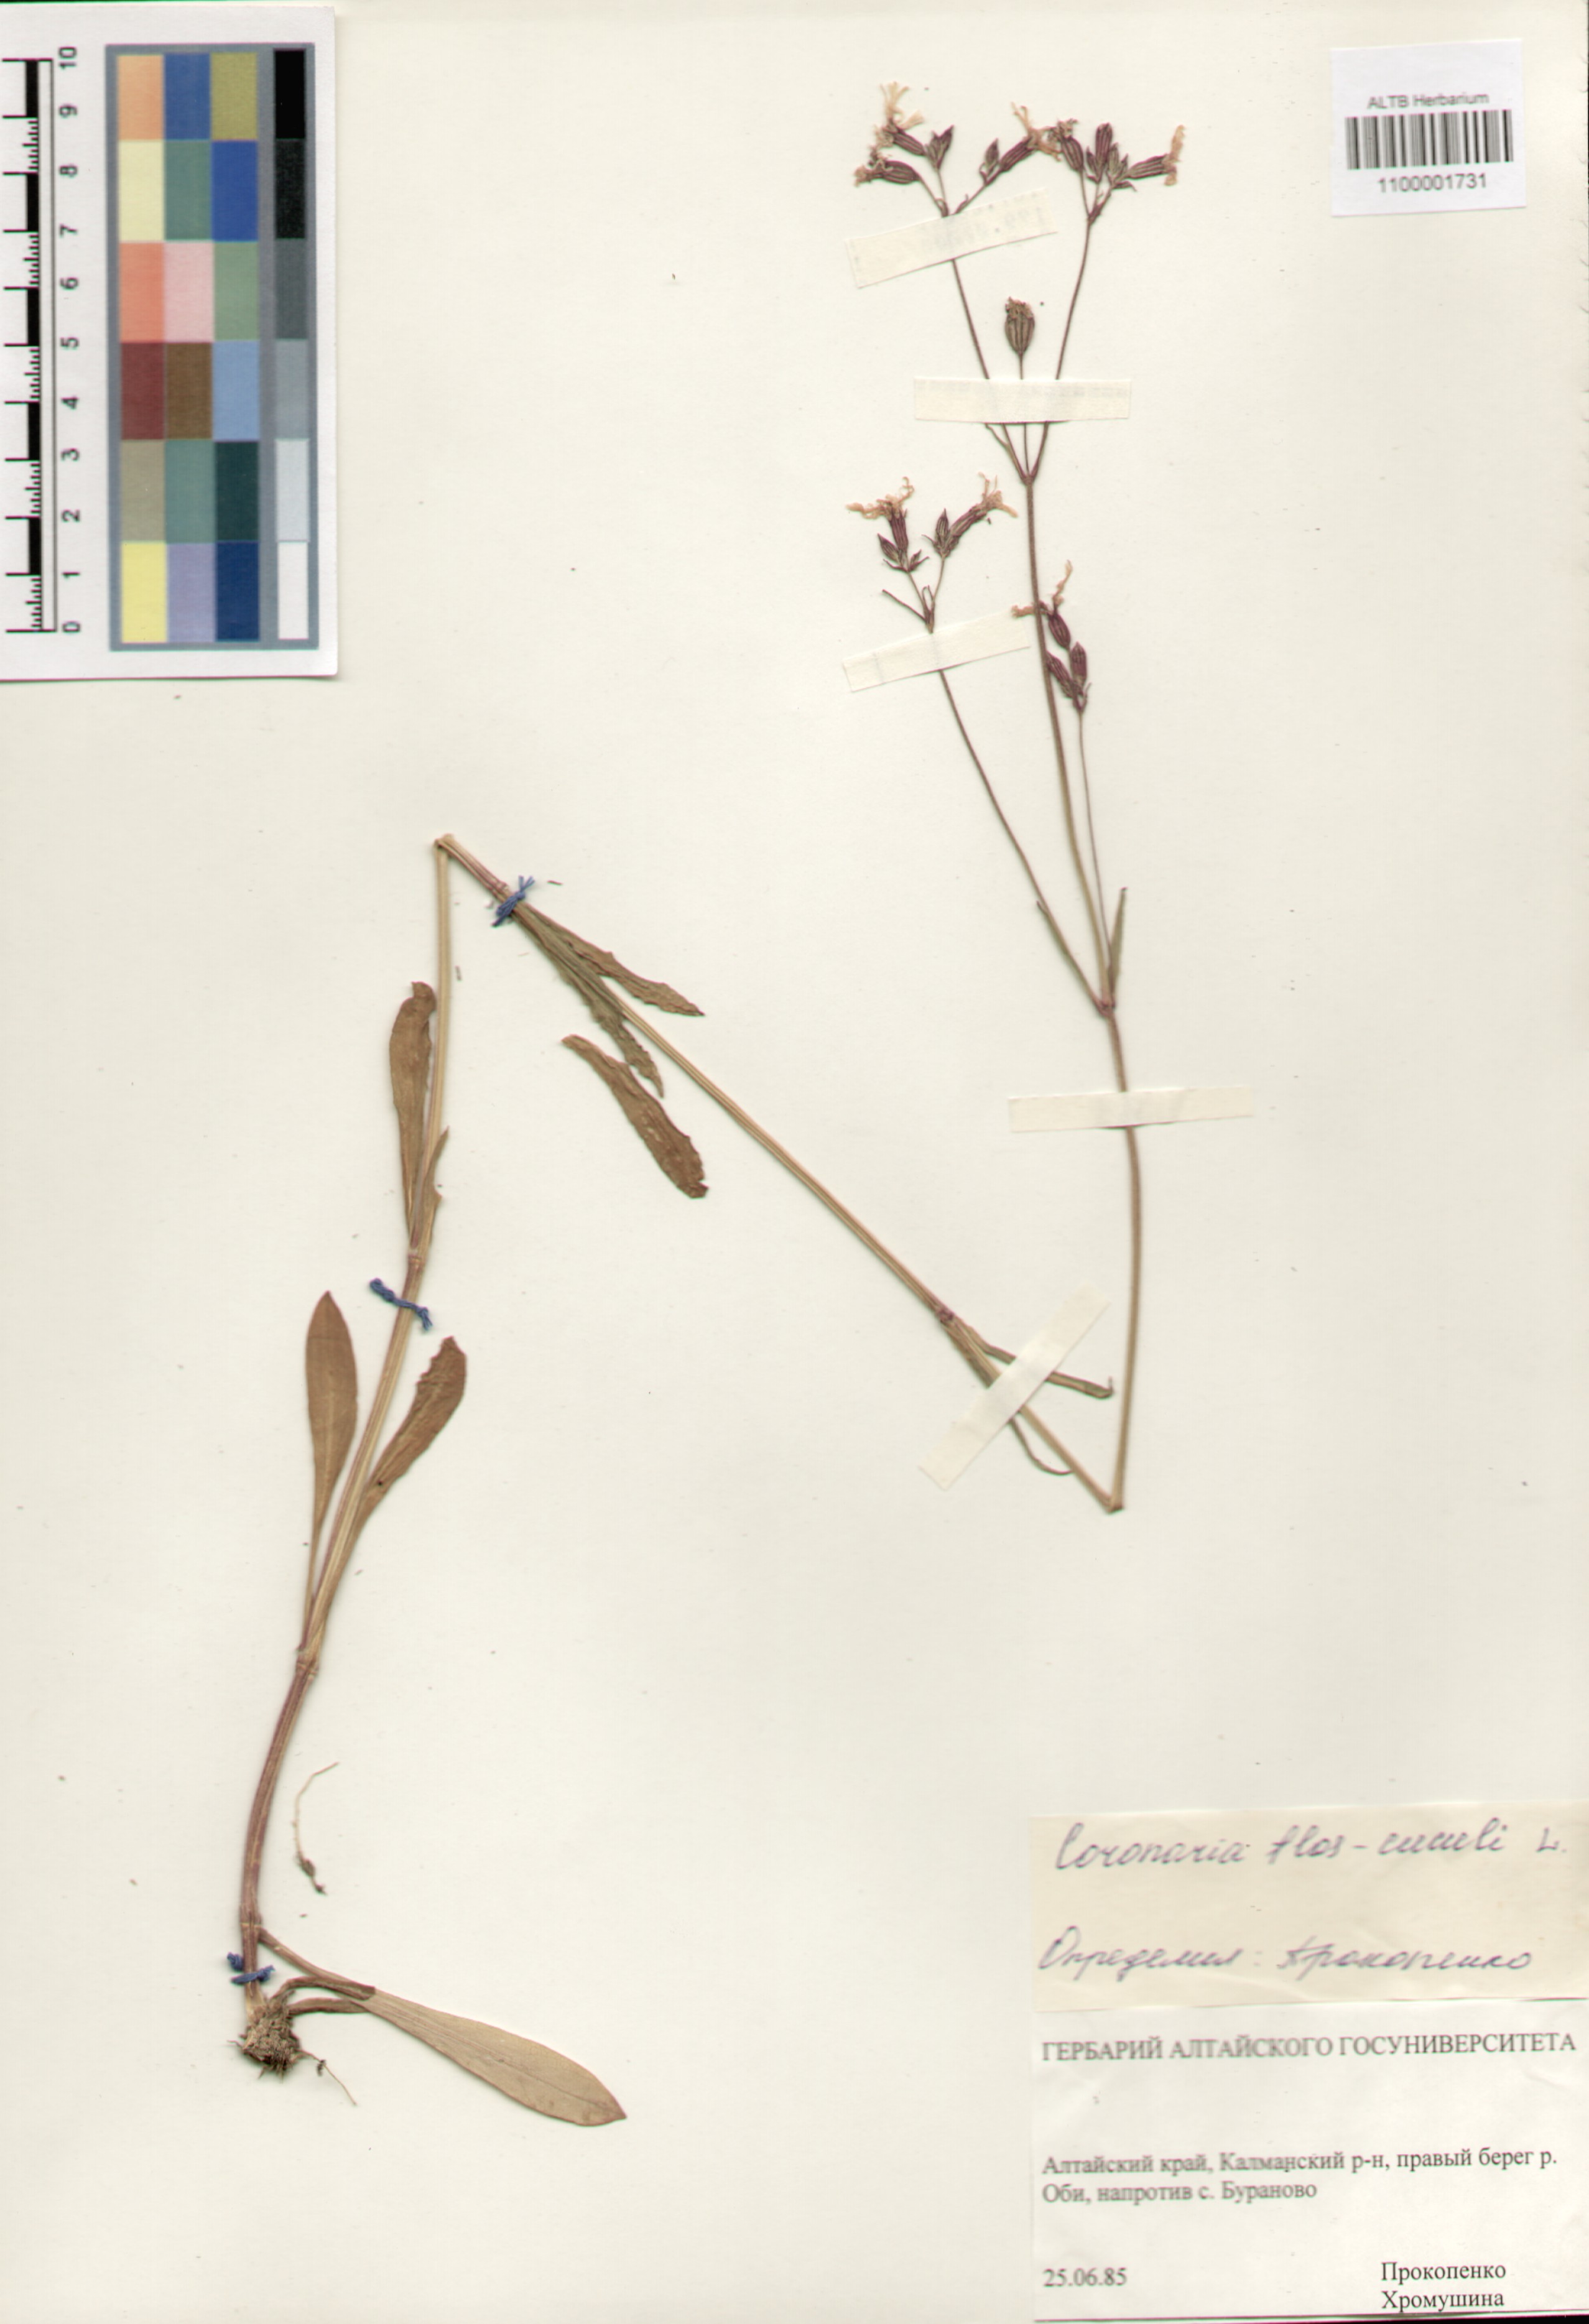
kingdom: Plantae
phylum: Tracheophyta
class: Magnoliopsida
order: Caryophyllales
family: Caryophyllaceae
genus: Silene
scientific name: Silene flos-cuculi
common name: Ragged-robin
